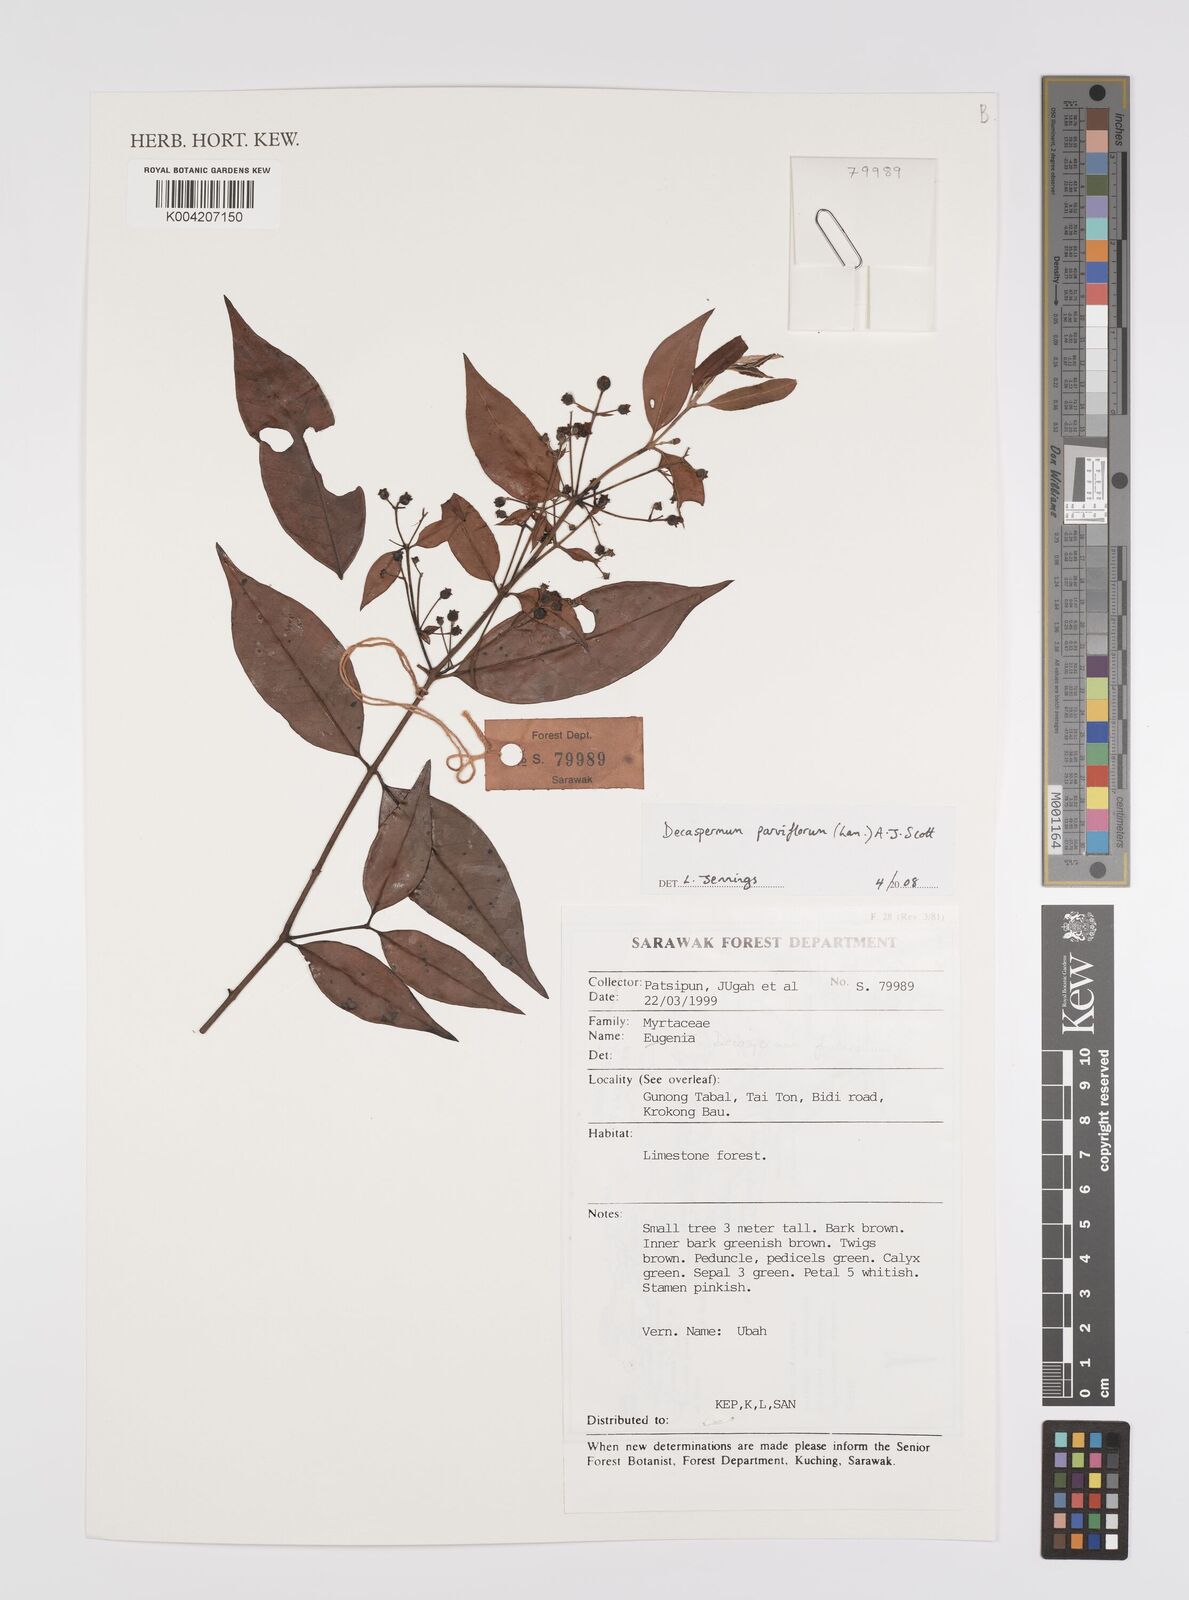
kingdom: Plantae
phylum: Tracheophyta
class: Magnoliopsida
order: Myrtales
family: Myrtaceae
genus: Decaspermum
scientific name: Decaspermum fruticosum
